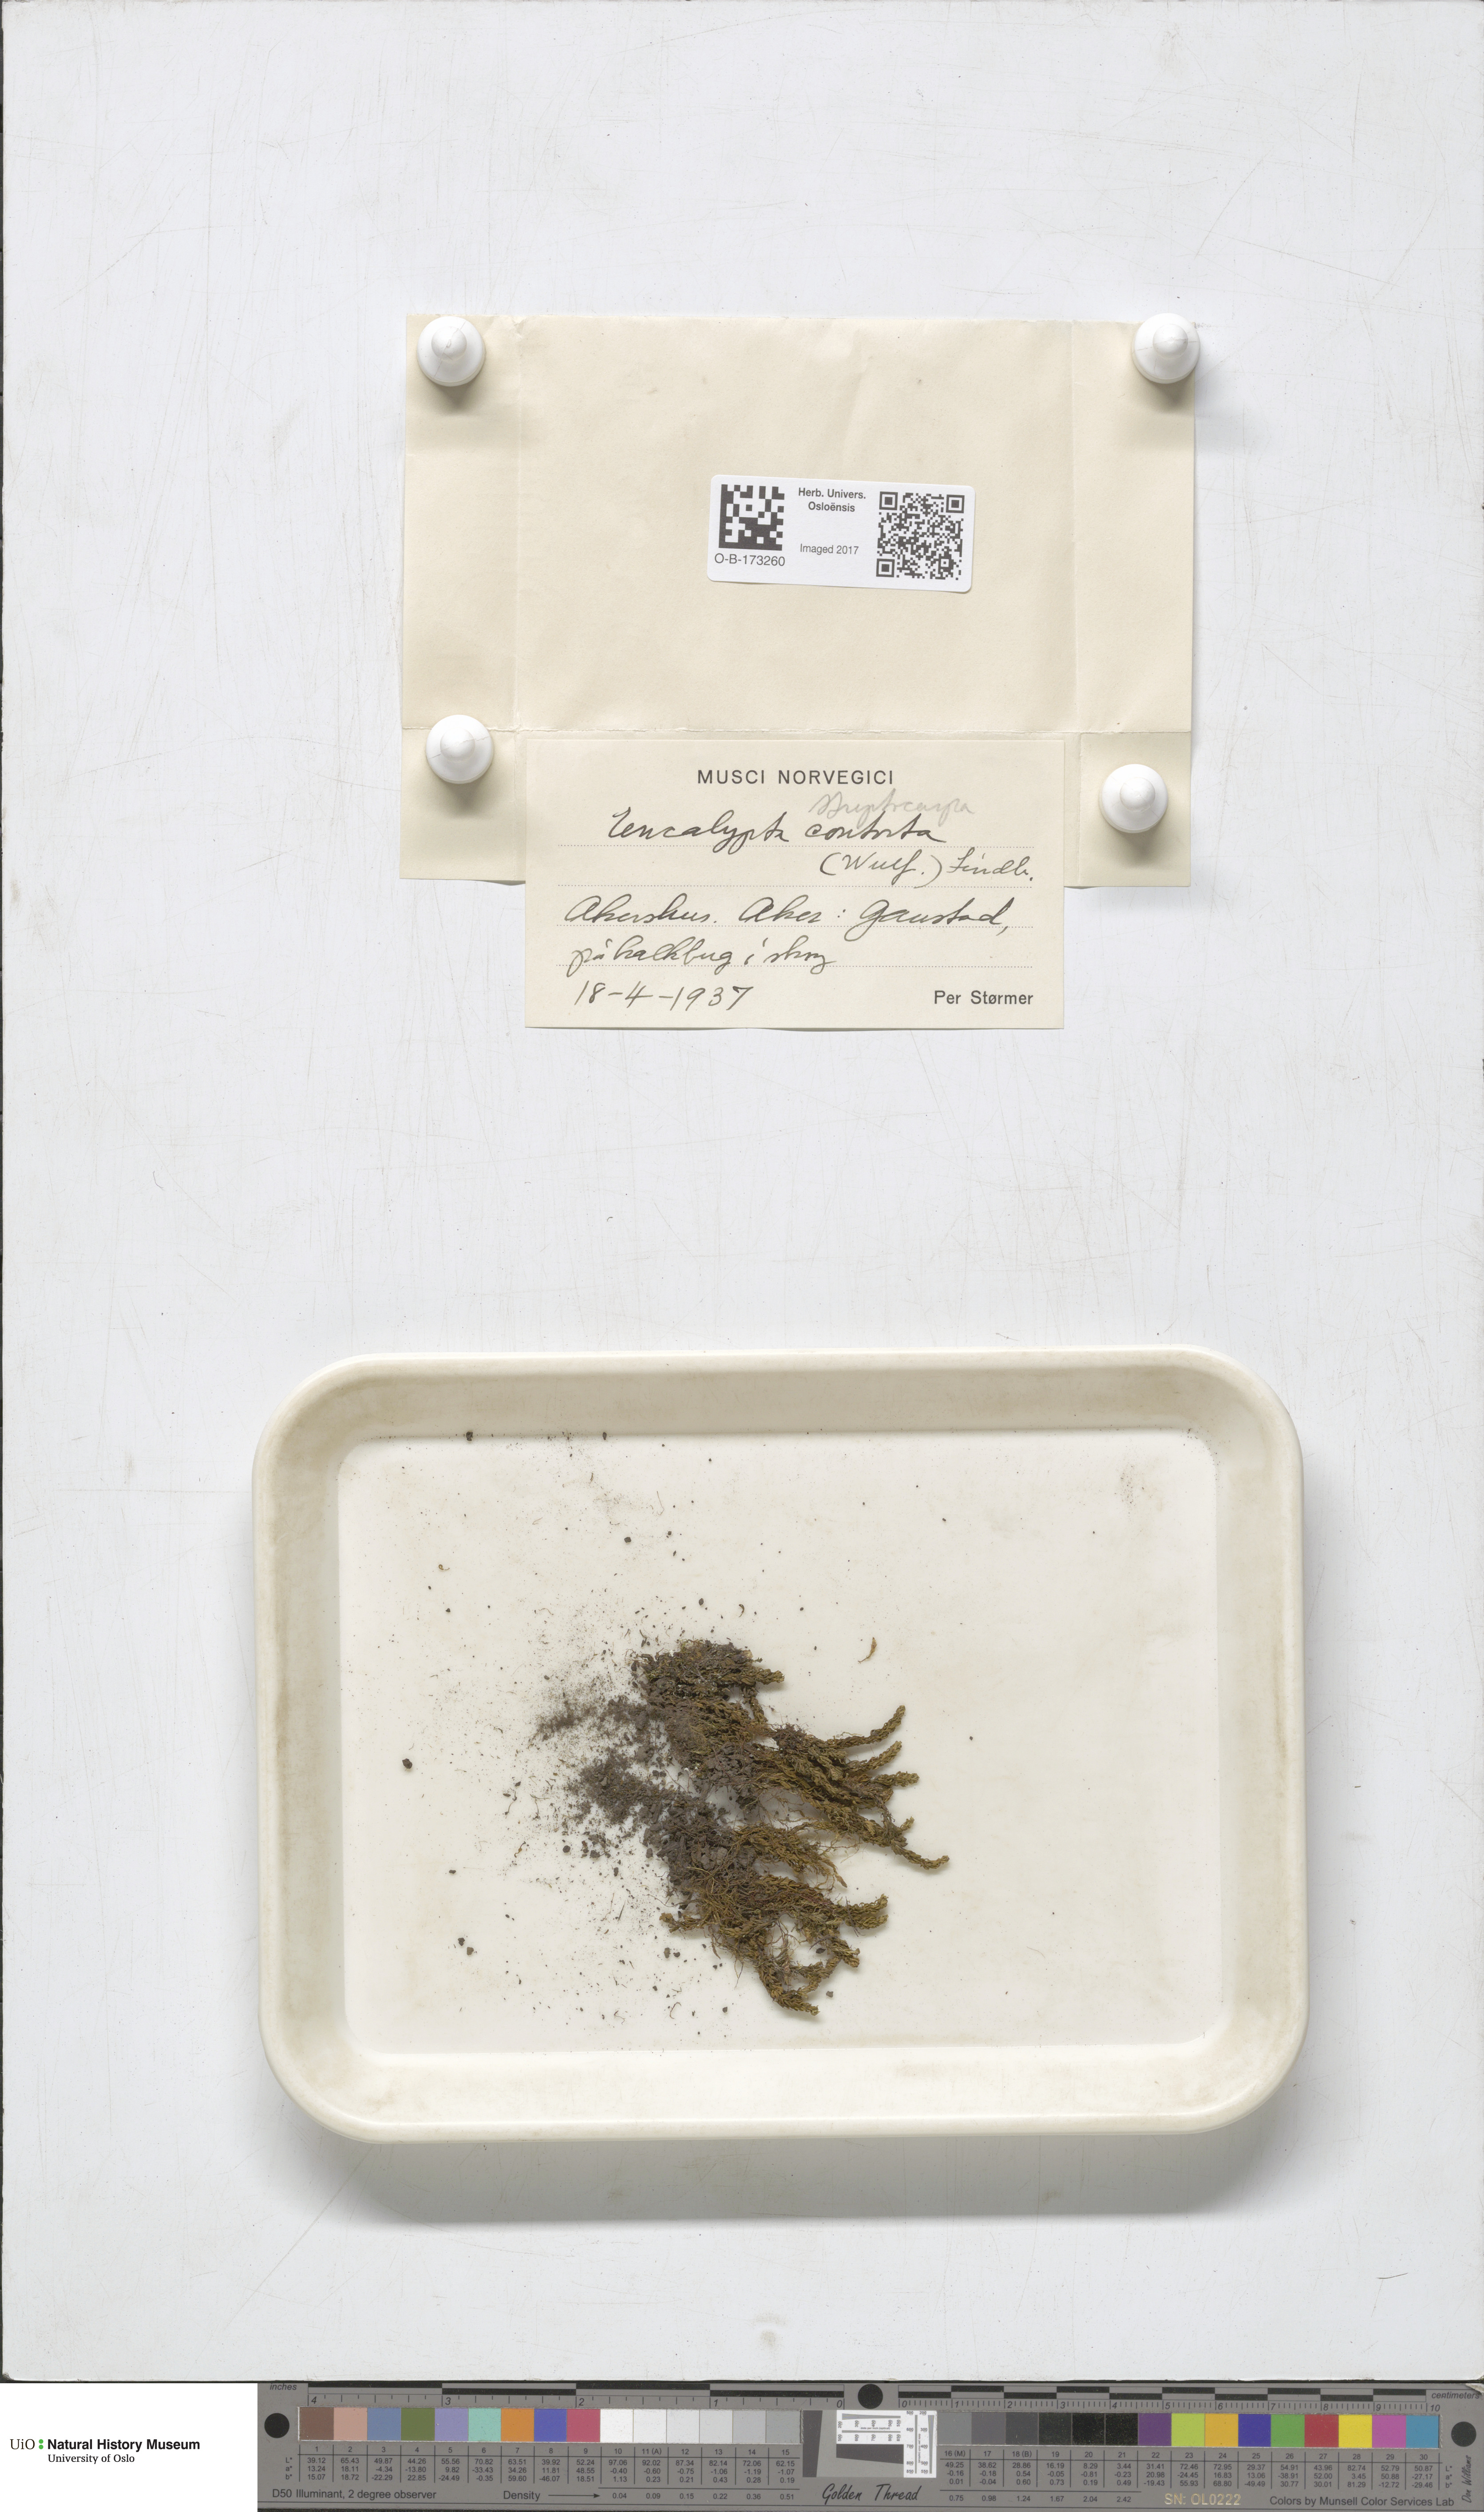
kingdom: Plantae
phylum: Bryophyta
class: Bryopsida
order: Encalyptales
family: Encalyptaceae
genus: Encalypta
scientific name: Encalypta
